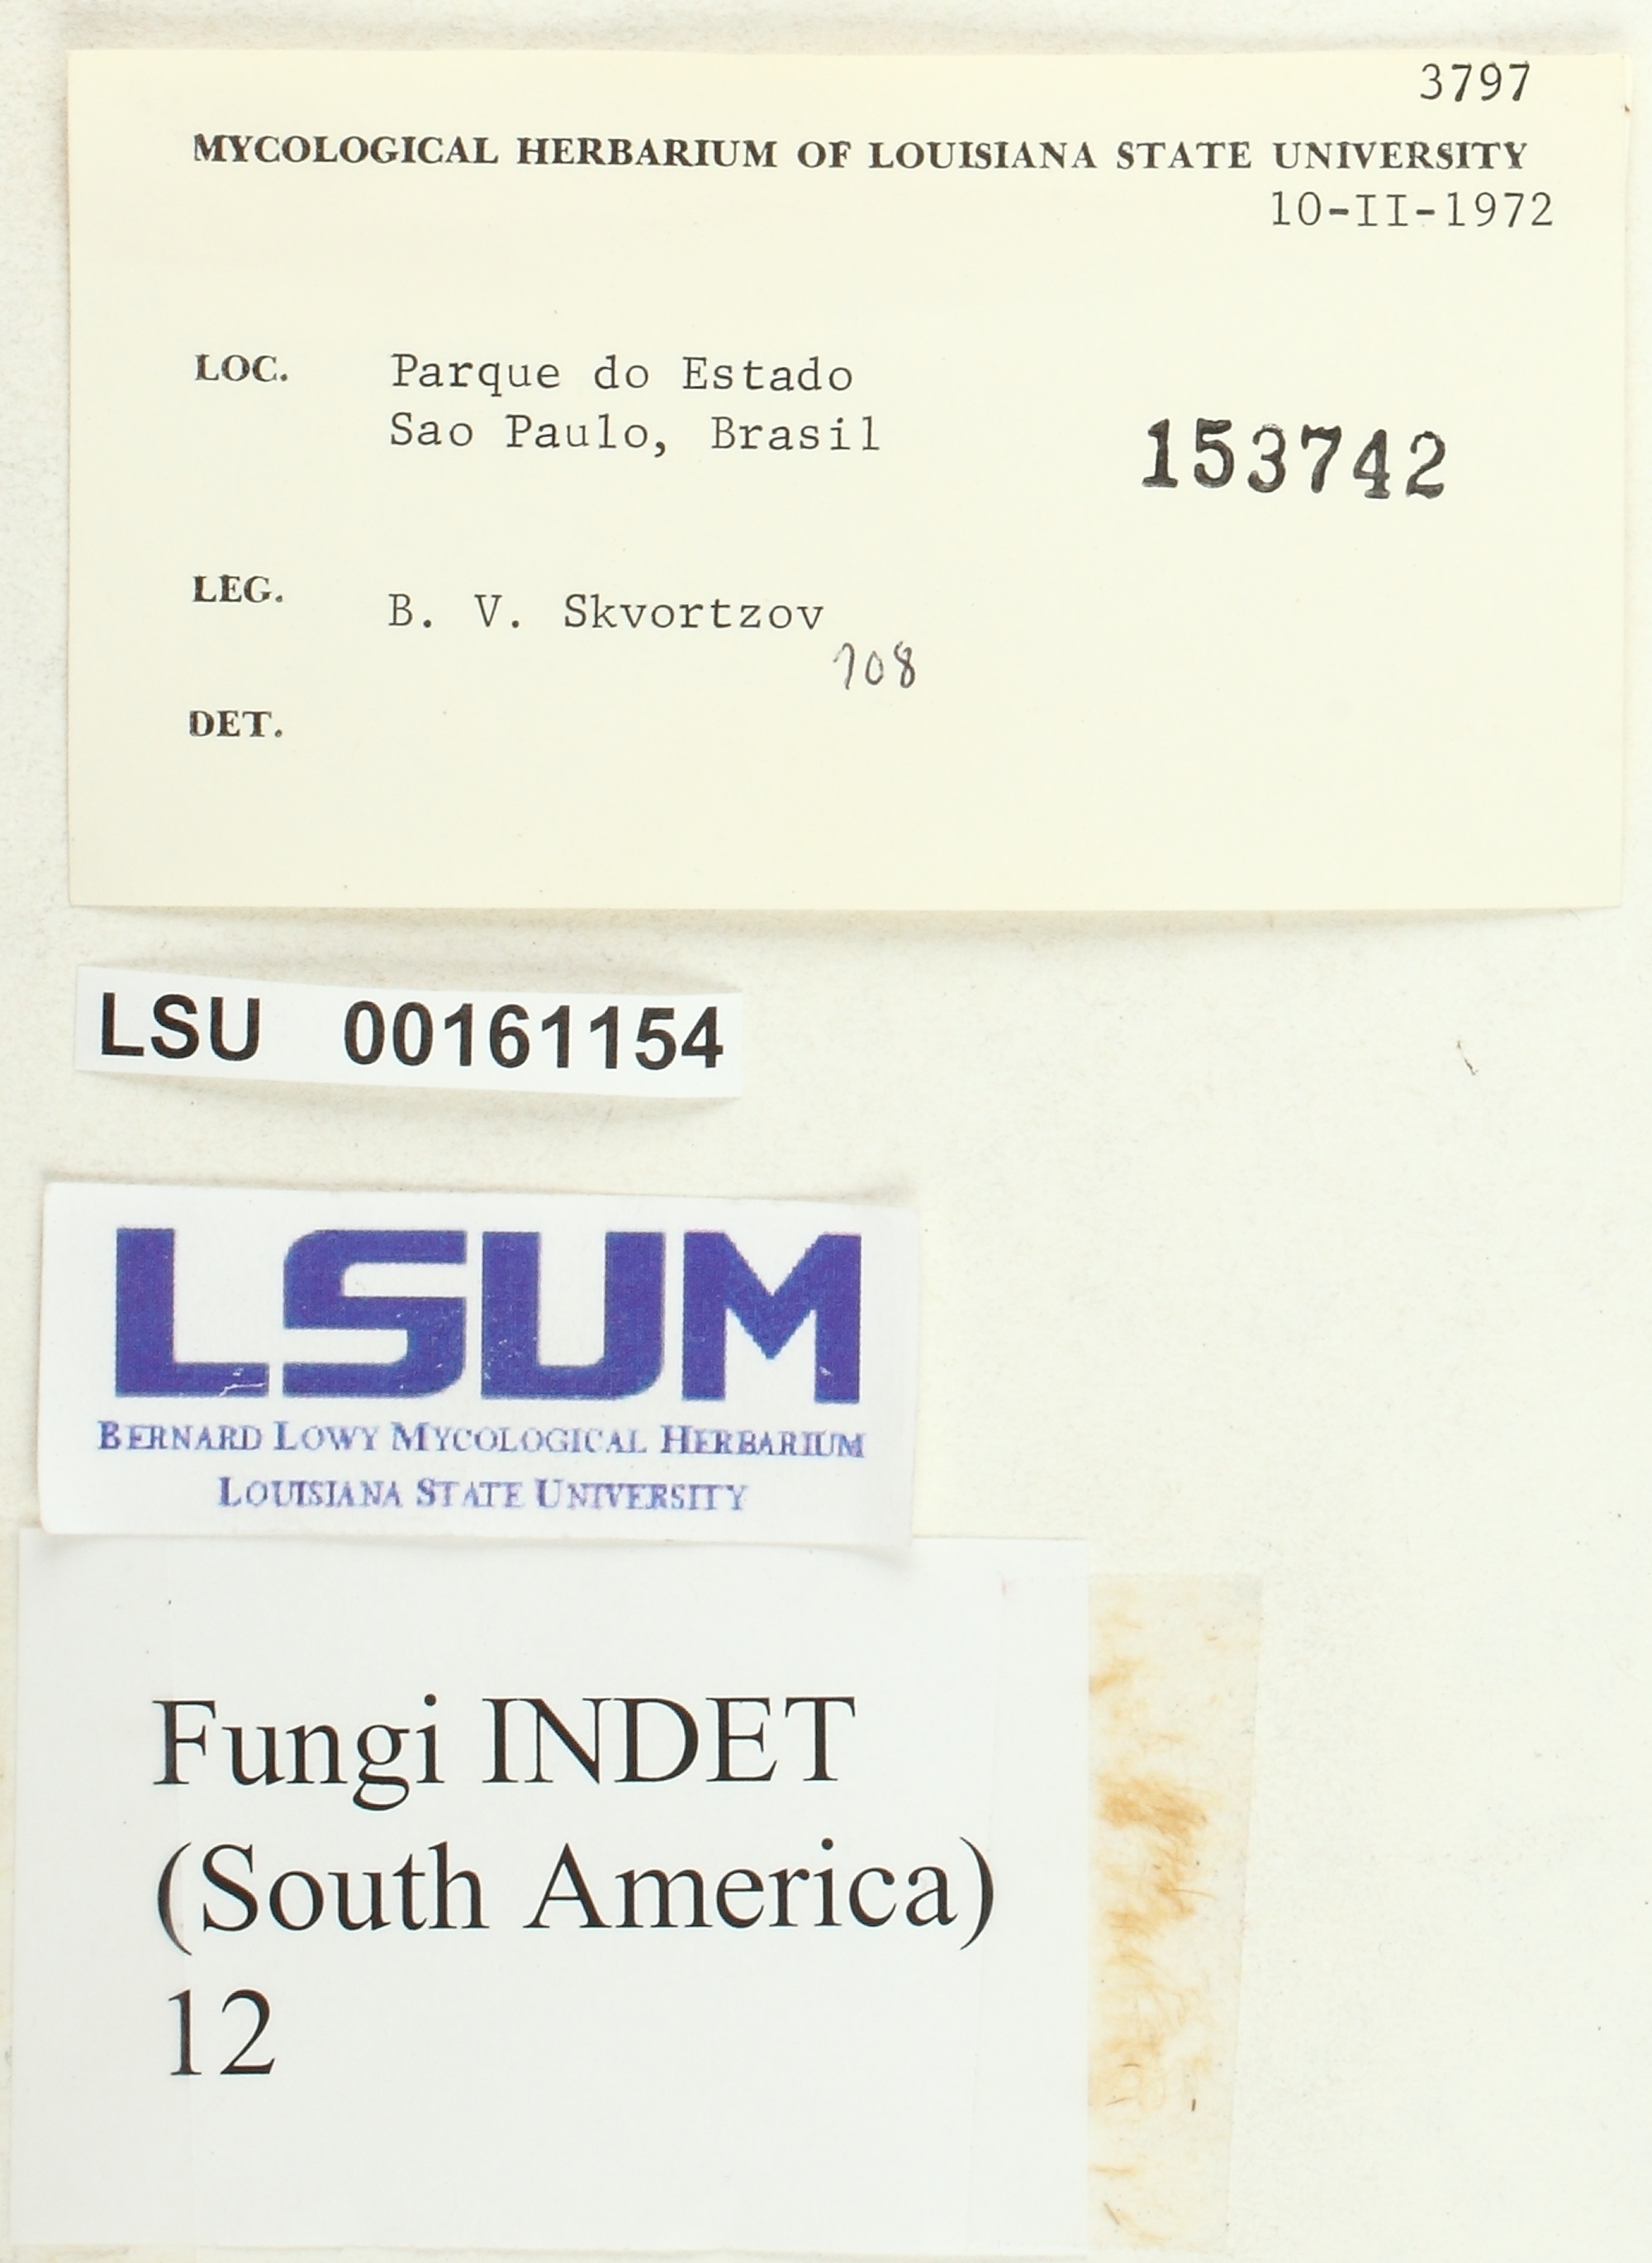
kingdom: Fungi
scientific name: Fungi
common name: Fungi
